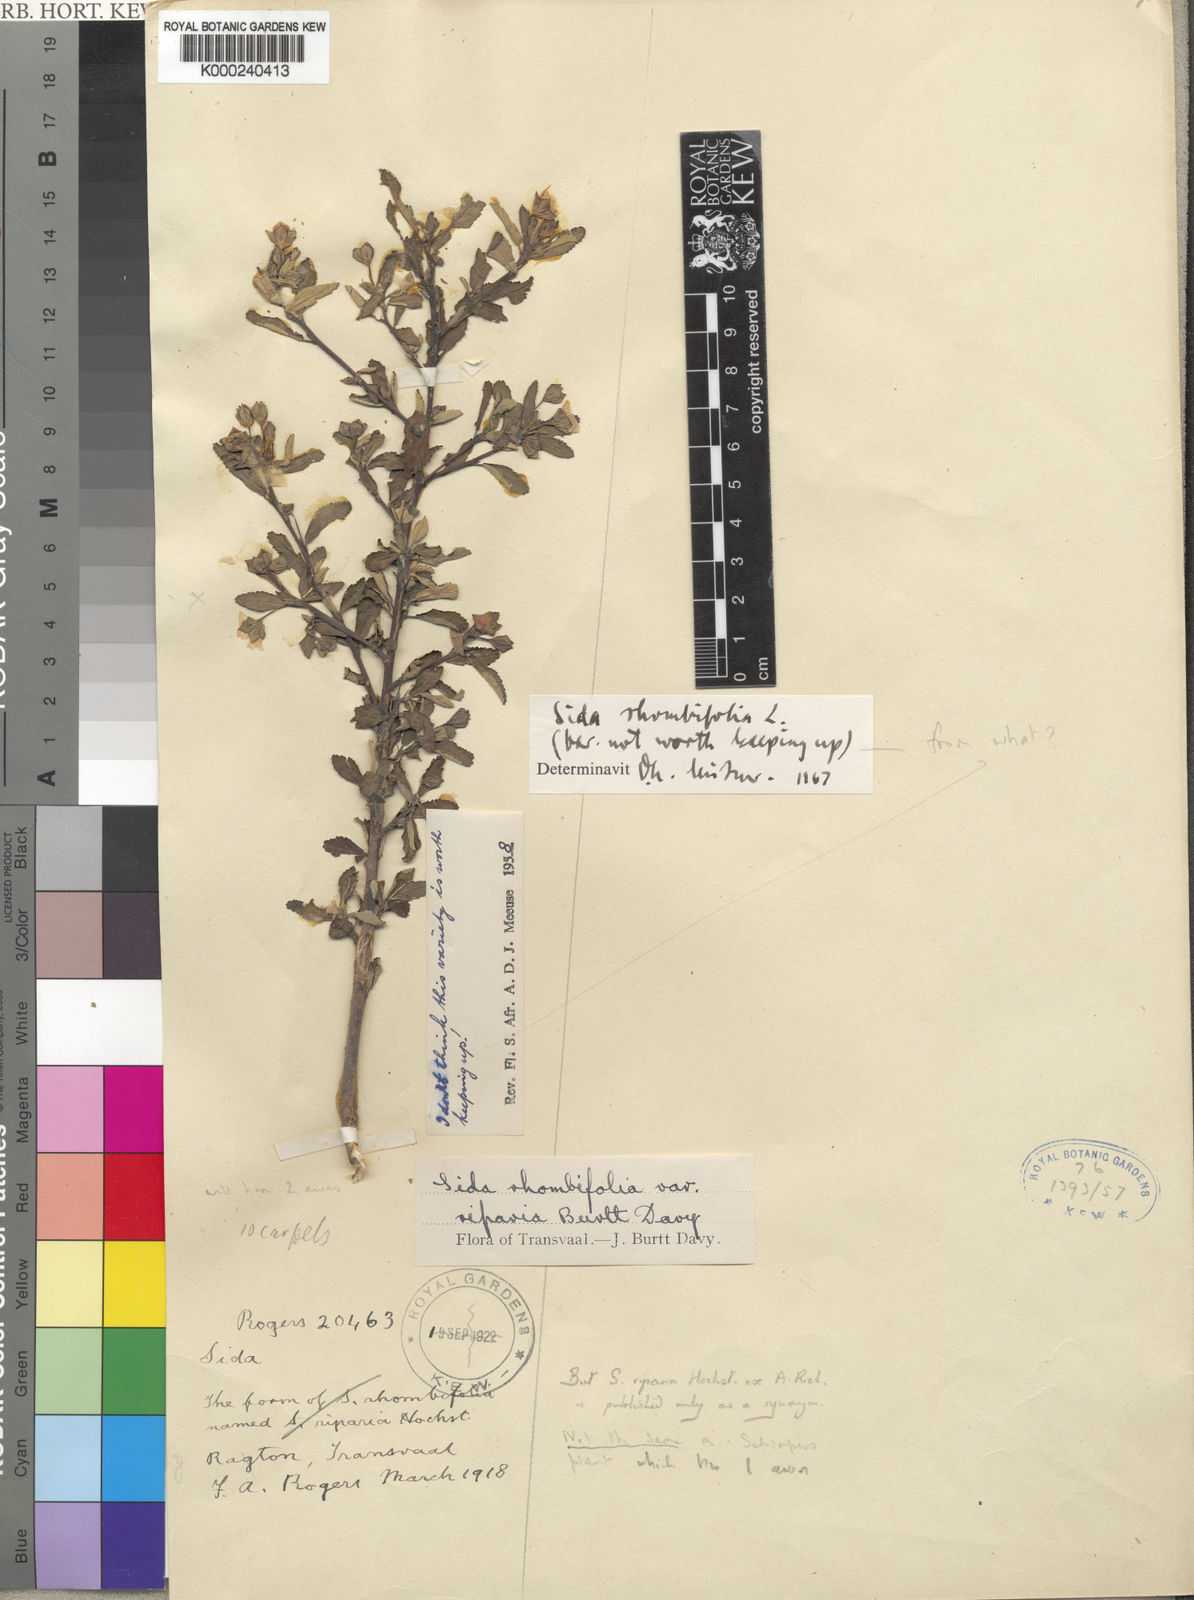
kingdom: Plantae
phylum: Tracheophyta
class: Magnoliopsida
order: Malvales
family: Malvaceae
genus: Sida
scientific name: Sida rhombifolia
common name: Queensland-hemp
